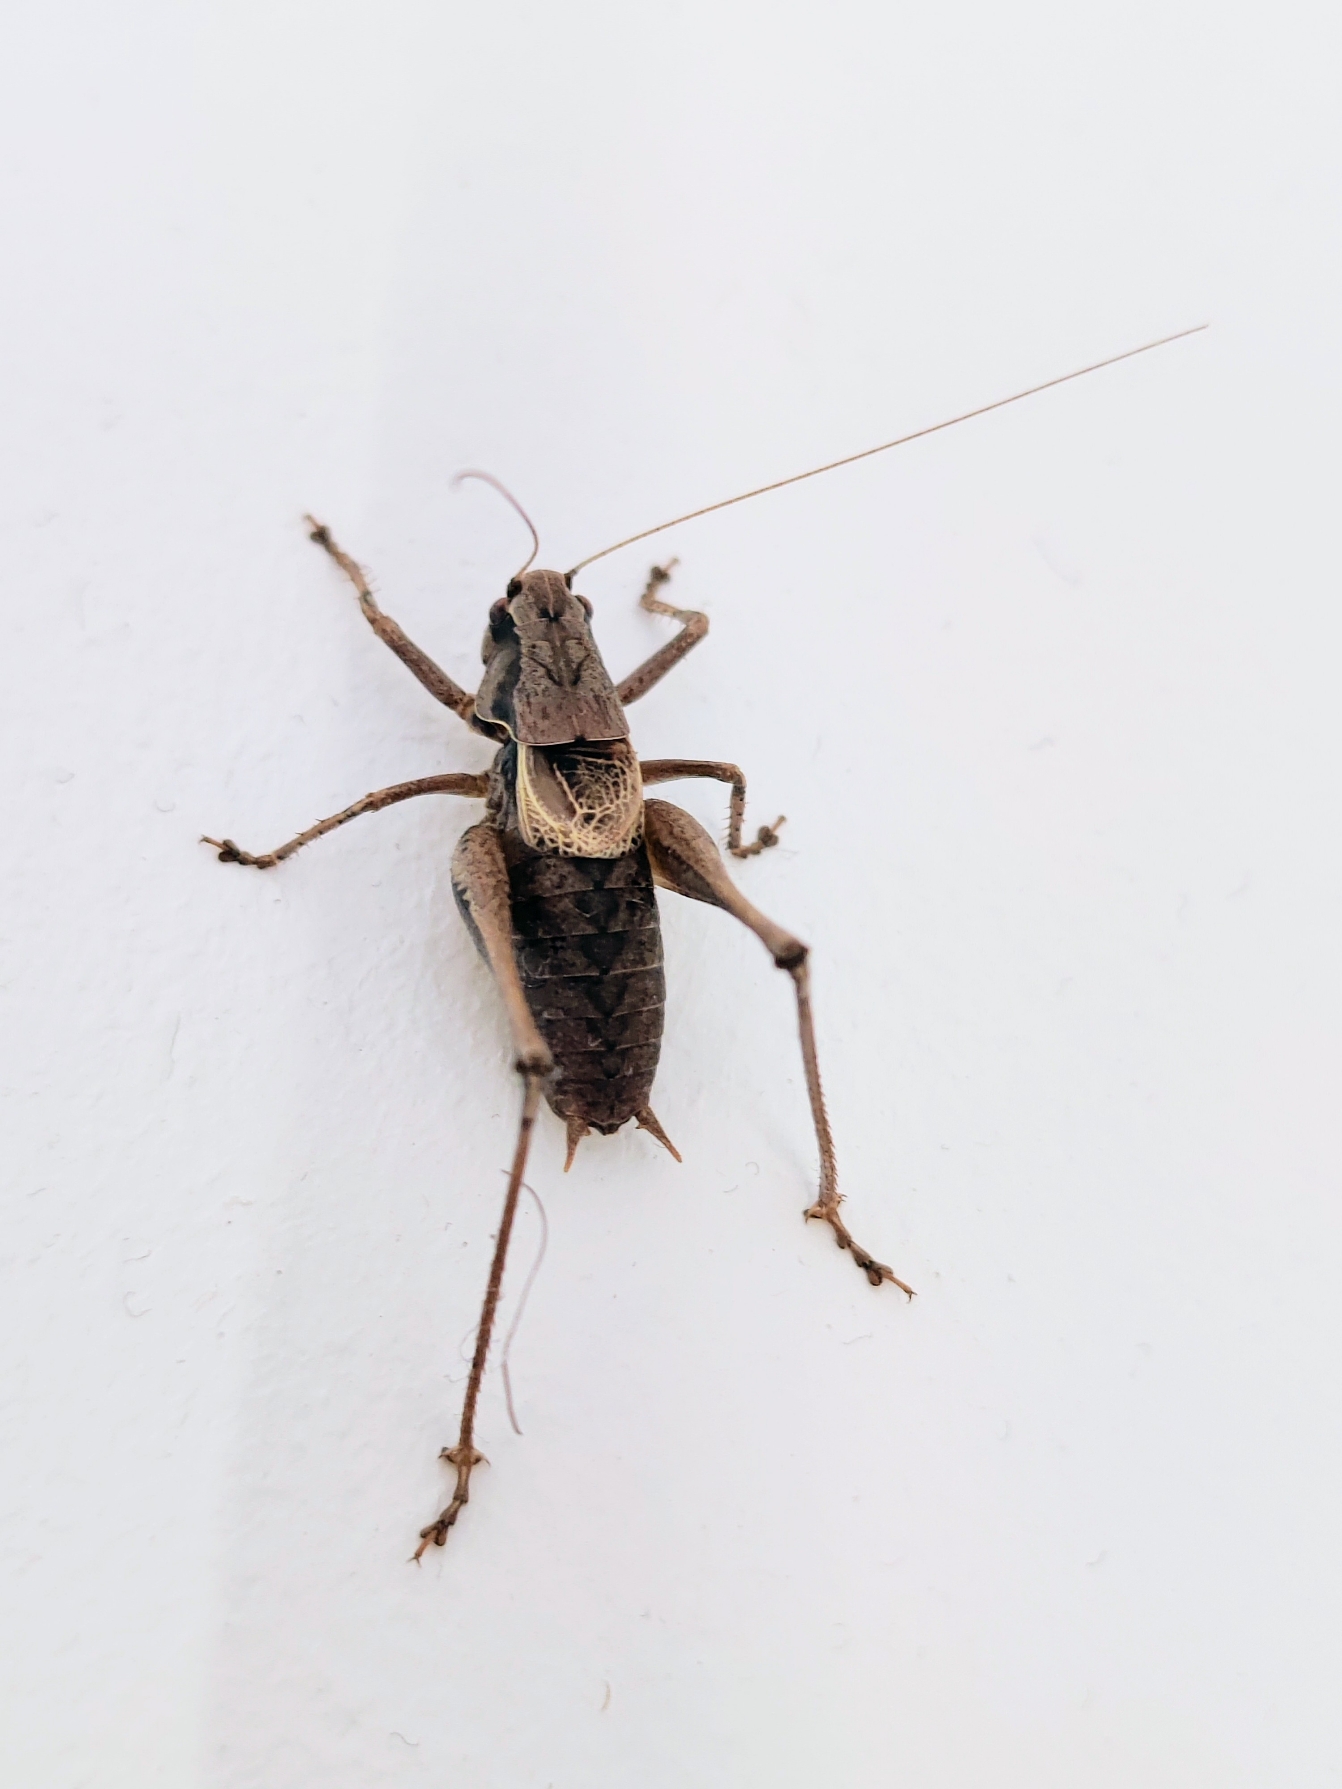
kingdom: Animalia
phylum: Arthropoda
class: Insecta
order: Orthoptera
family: Tettigoniidae
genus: Pholidoptera
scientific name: Pholidoptera griseoaptera
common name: Buskgræshoppe
